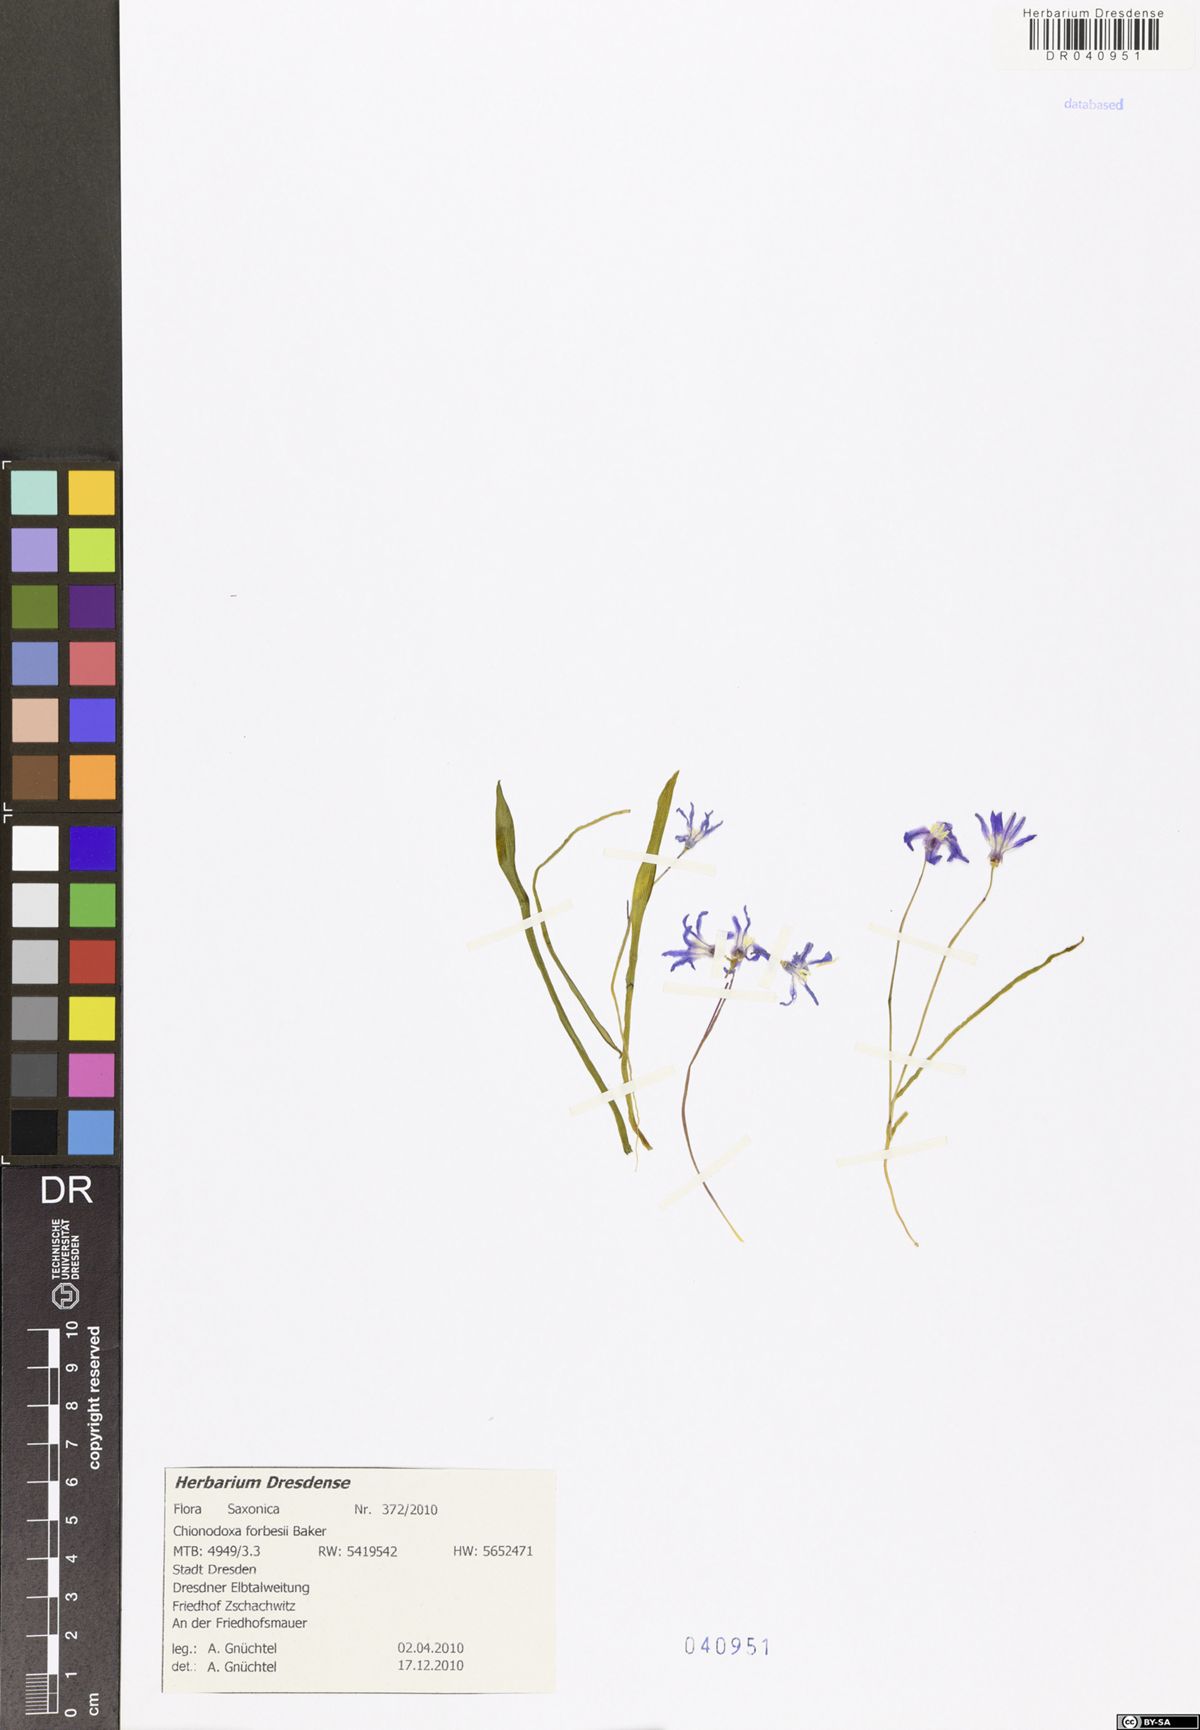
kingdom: Plantae
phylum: Tracheophyta
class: Liliopsida
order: Asparagales
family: Asparagaceae
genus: Scilla
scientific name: Scilla forbesii
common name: Glory-of-the-snow
